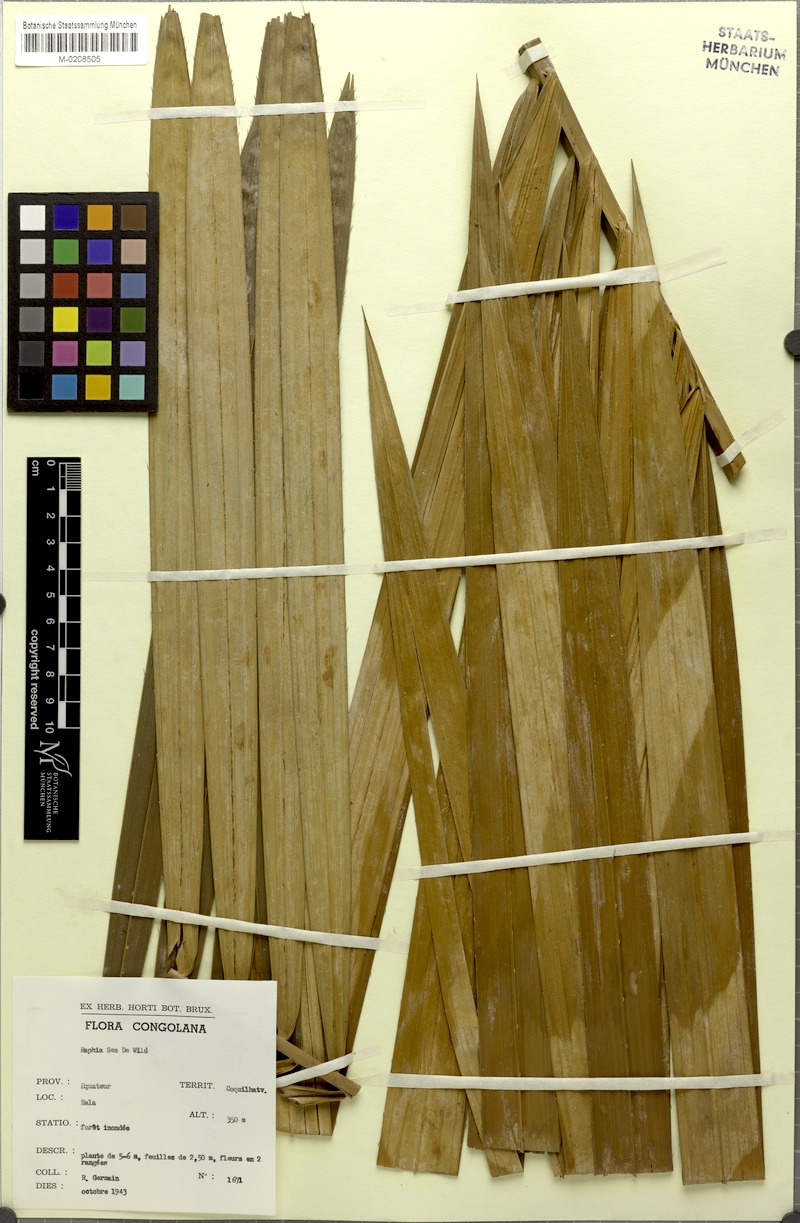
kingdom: Plantae
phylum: Tracheophyta
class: Liliopsida
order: Arecales
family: Arecaceae
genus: Raphia
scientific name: Raphia sese
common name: Raphia palm
